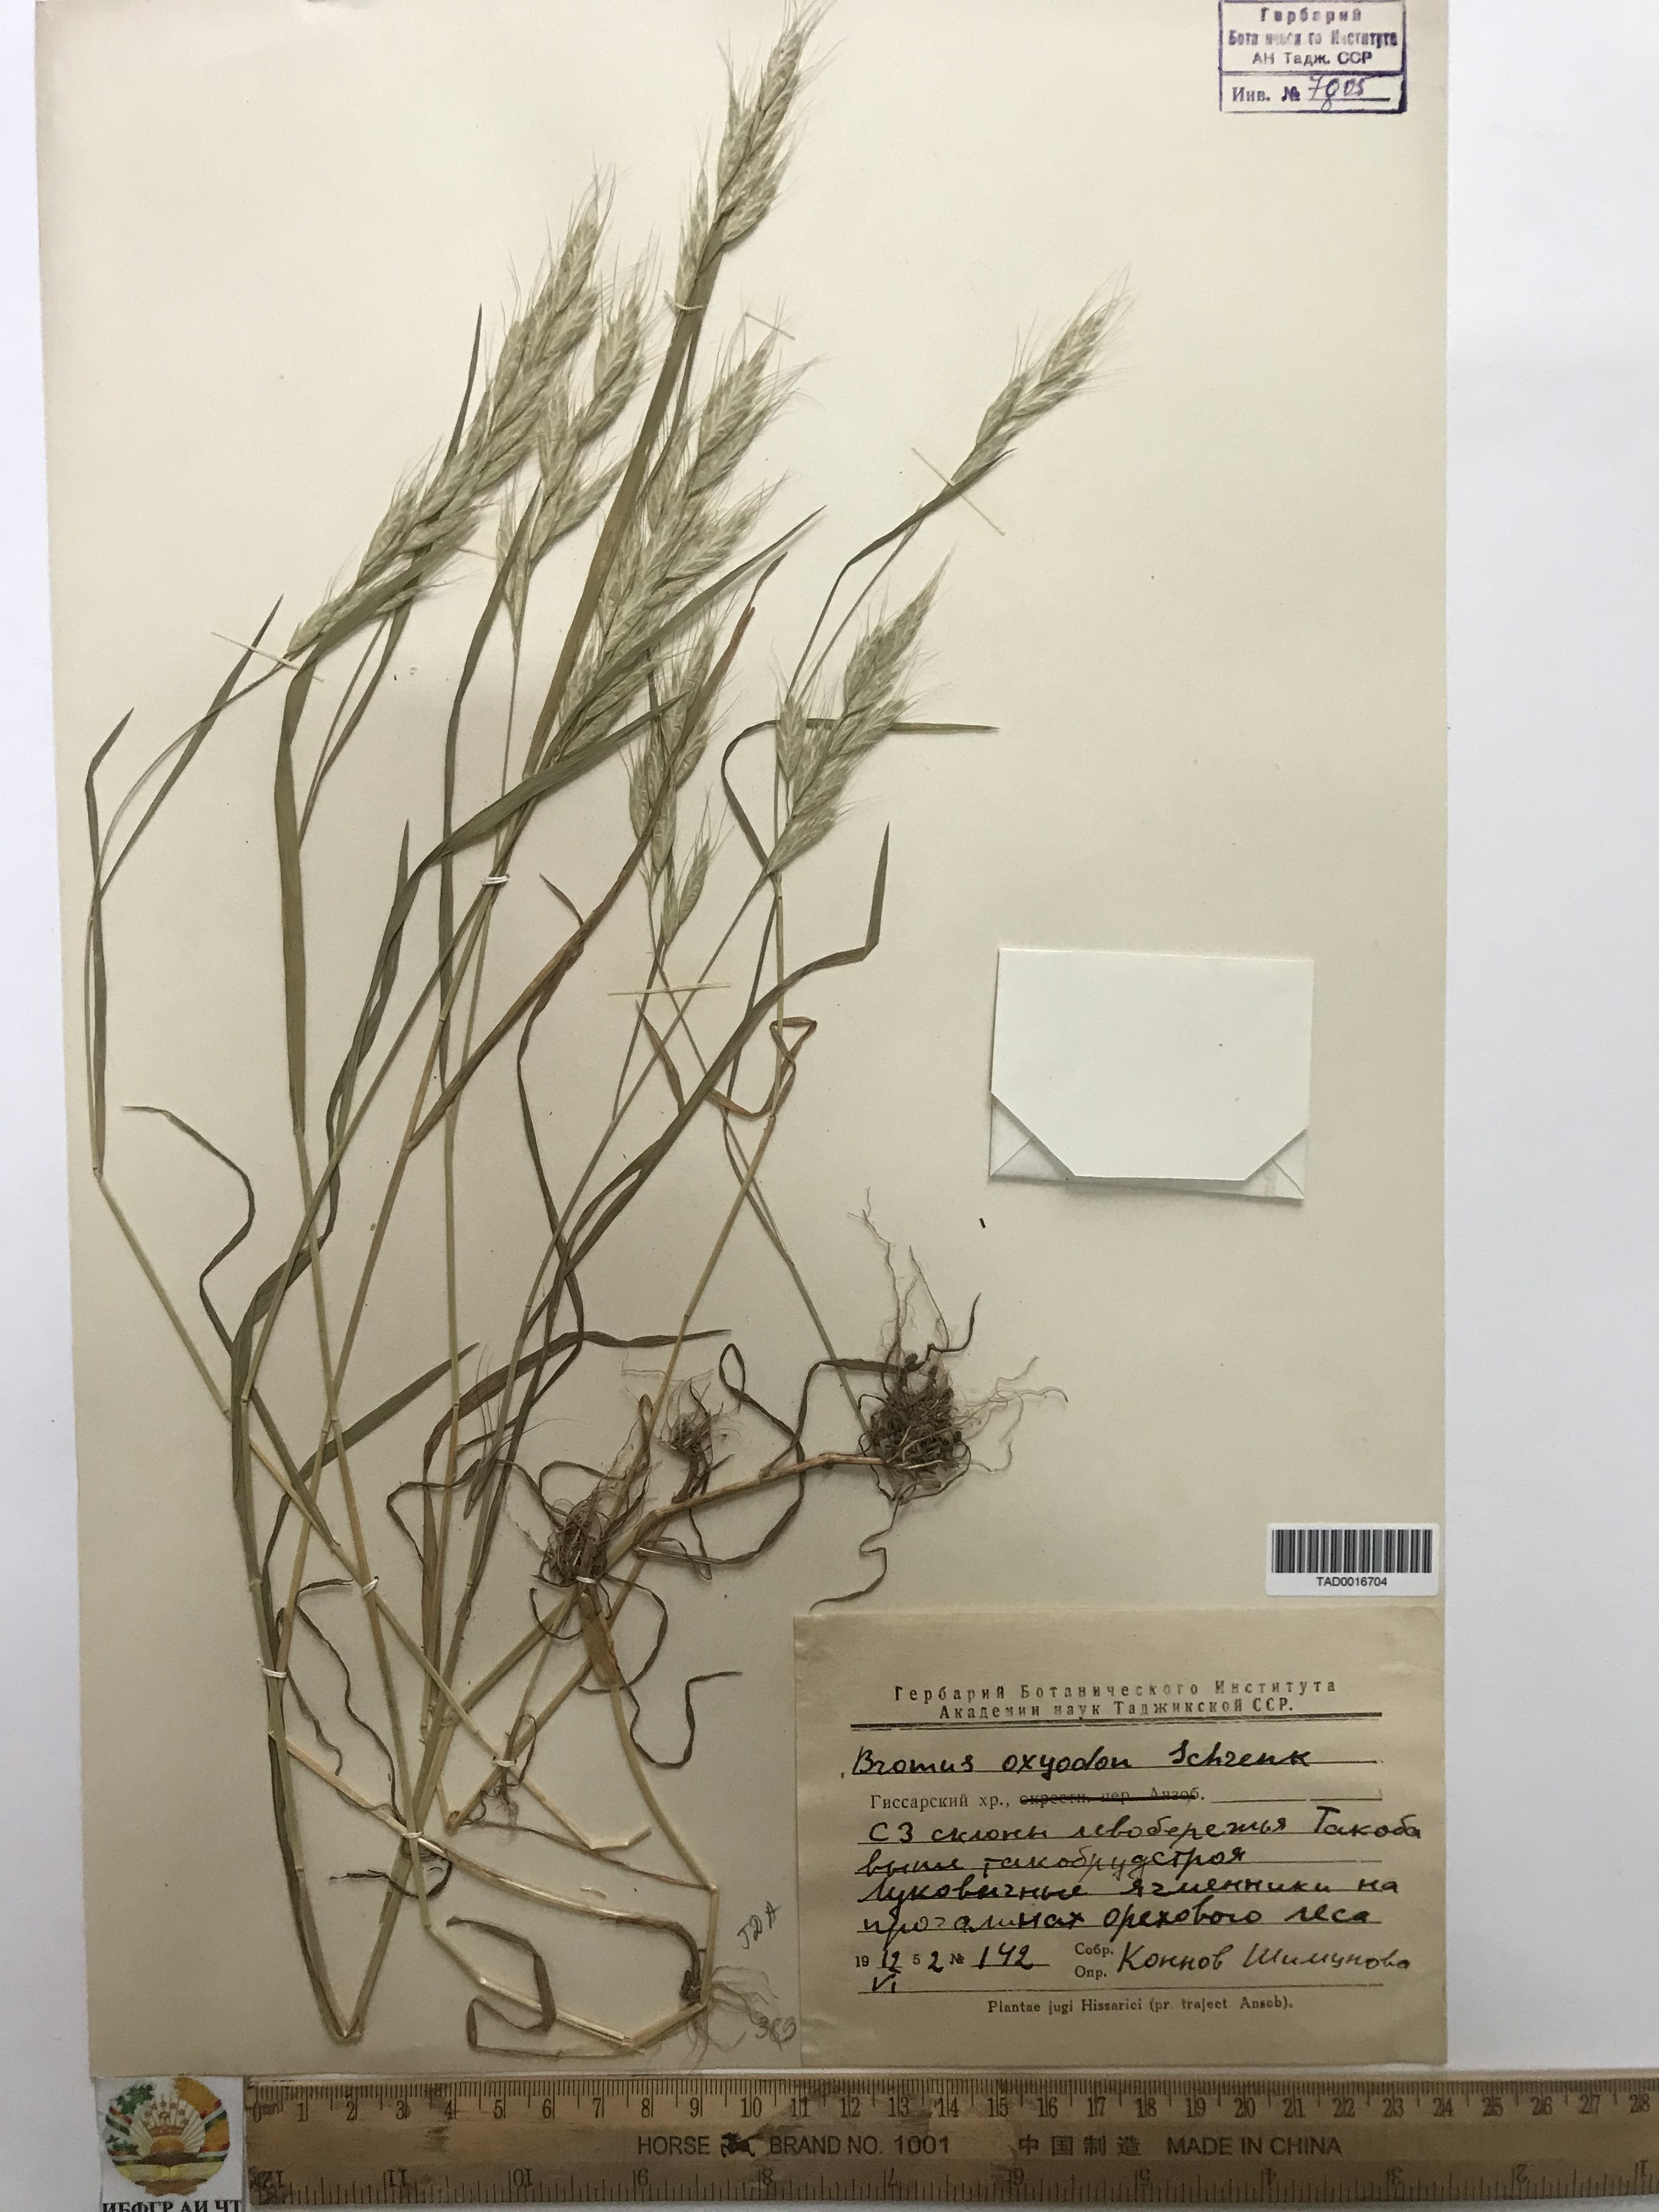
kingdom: Plantae
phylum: Tracheophyta
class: Liliopsida
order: Poales
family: Poaceae
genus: Bromus
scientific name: Bromus oxyodon
